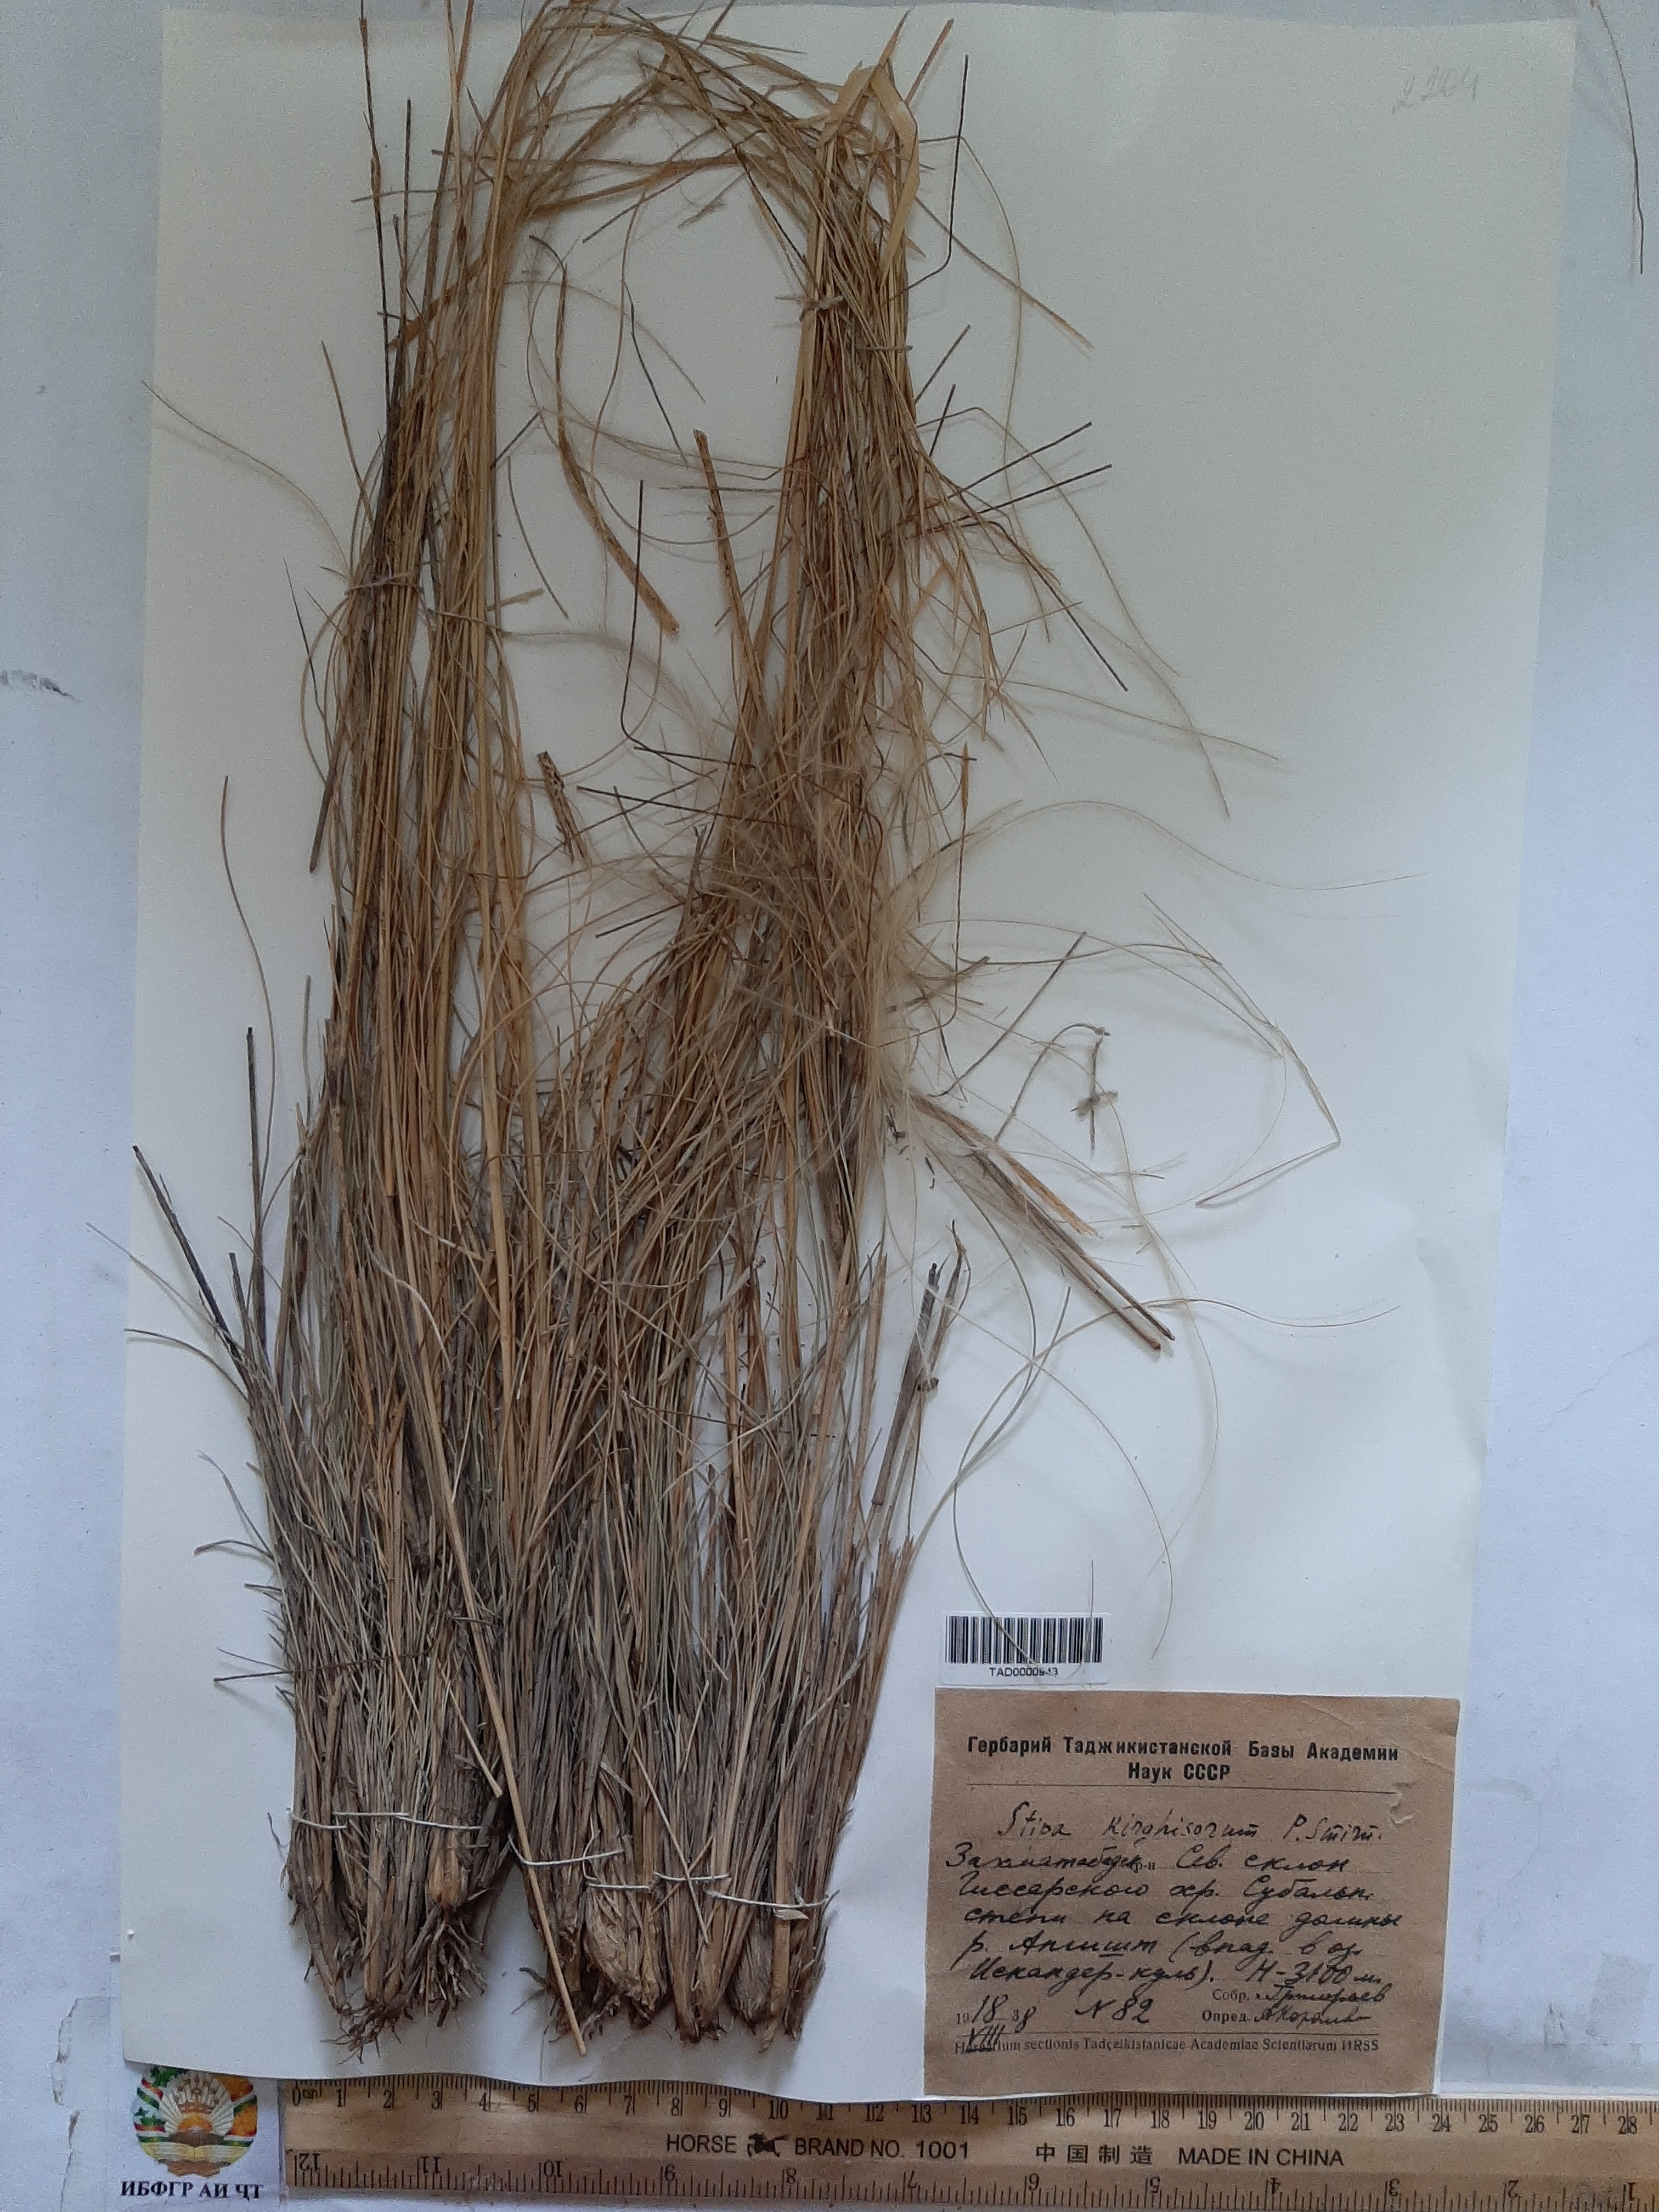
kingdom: Plantae
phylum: Tracheophyta
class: Liliopsida
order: Poales
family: Poaceae
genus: Stipa
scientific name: Stipa kirghisorum
